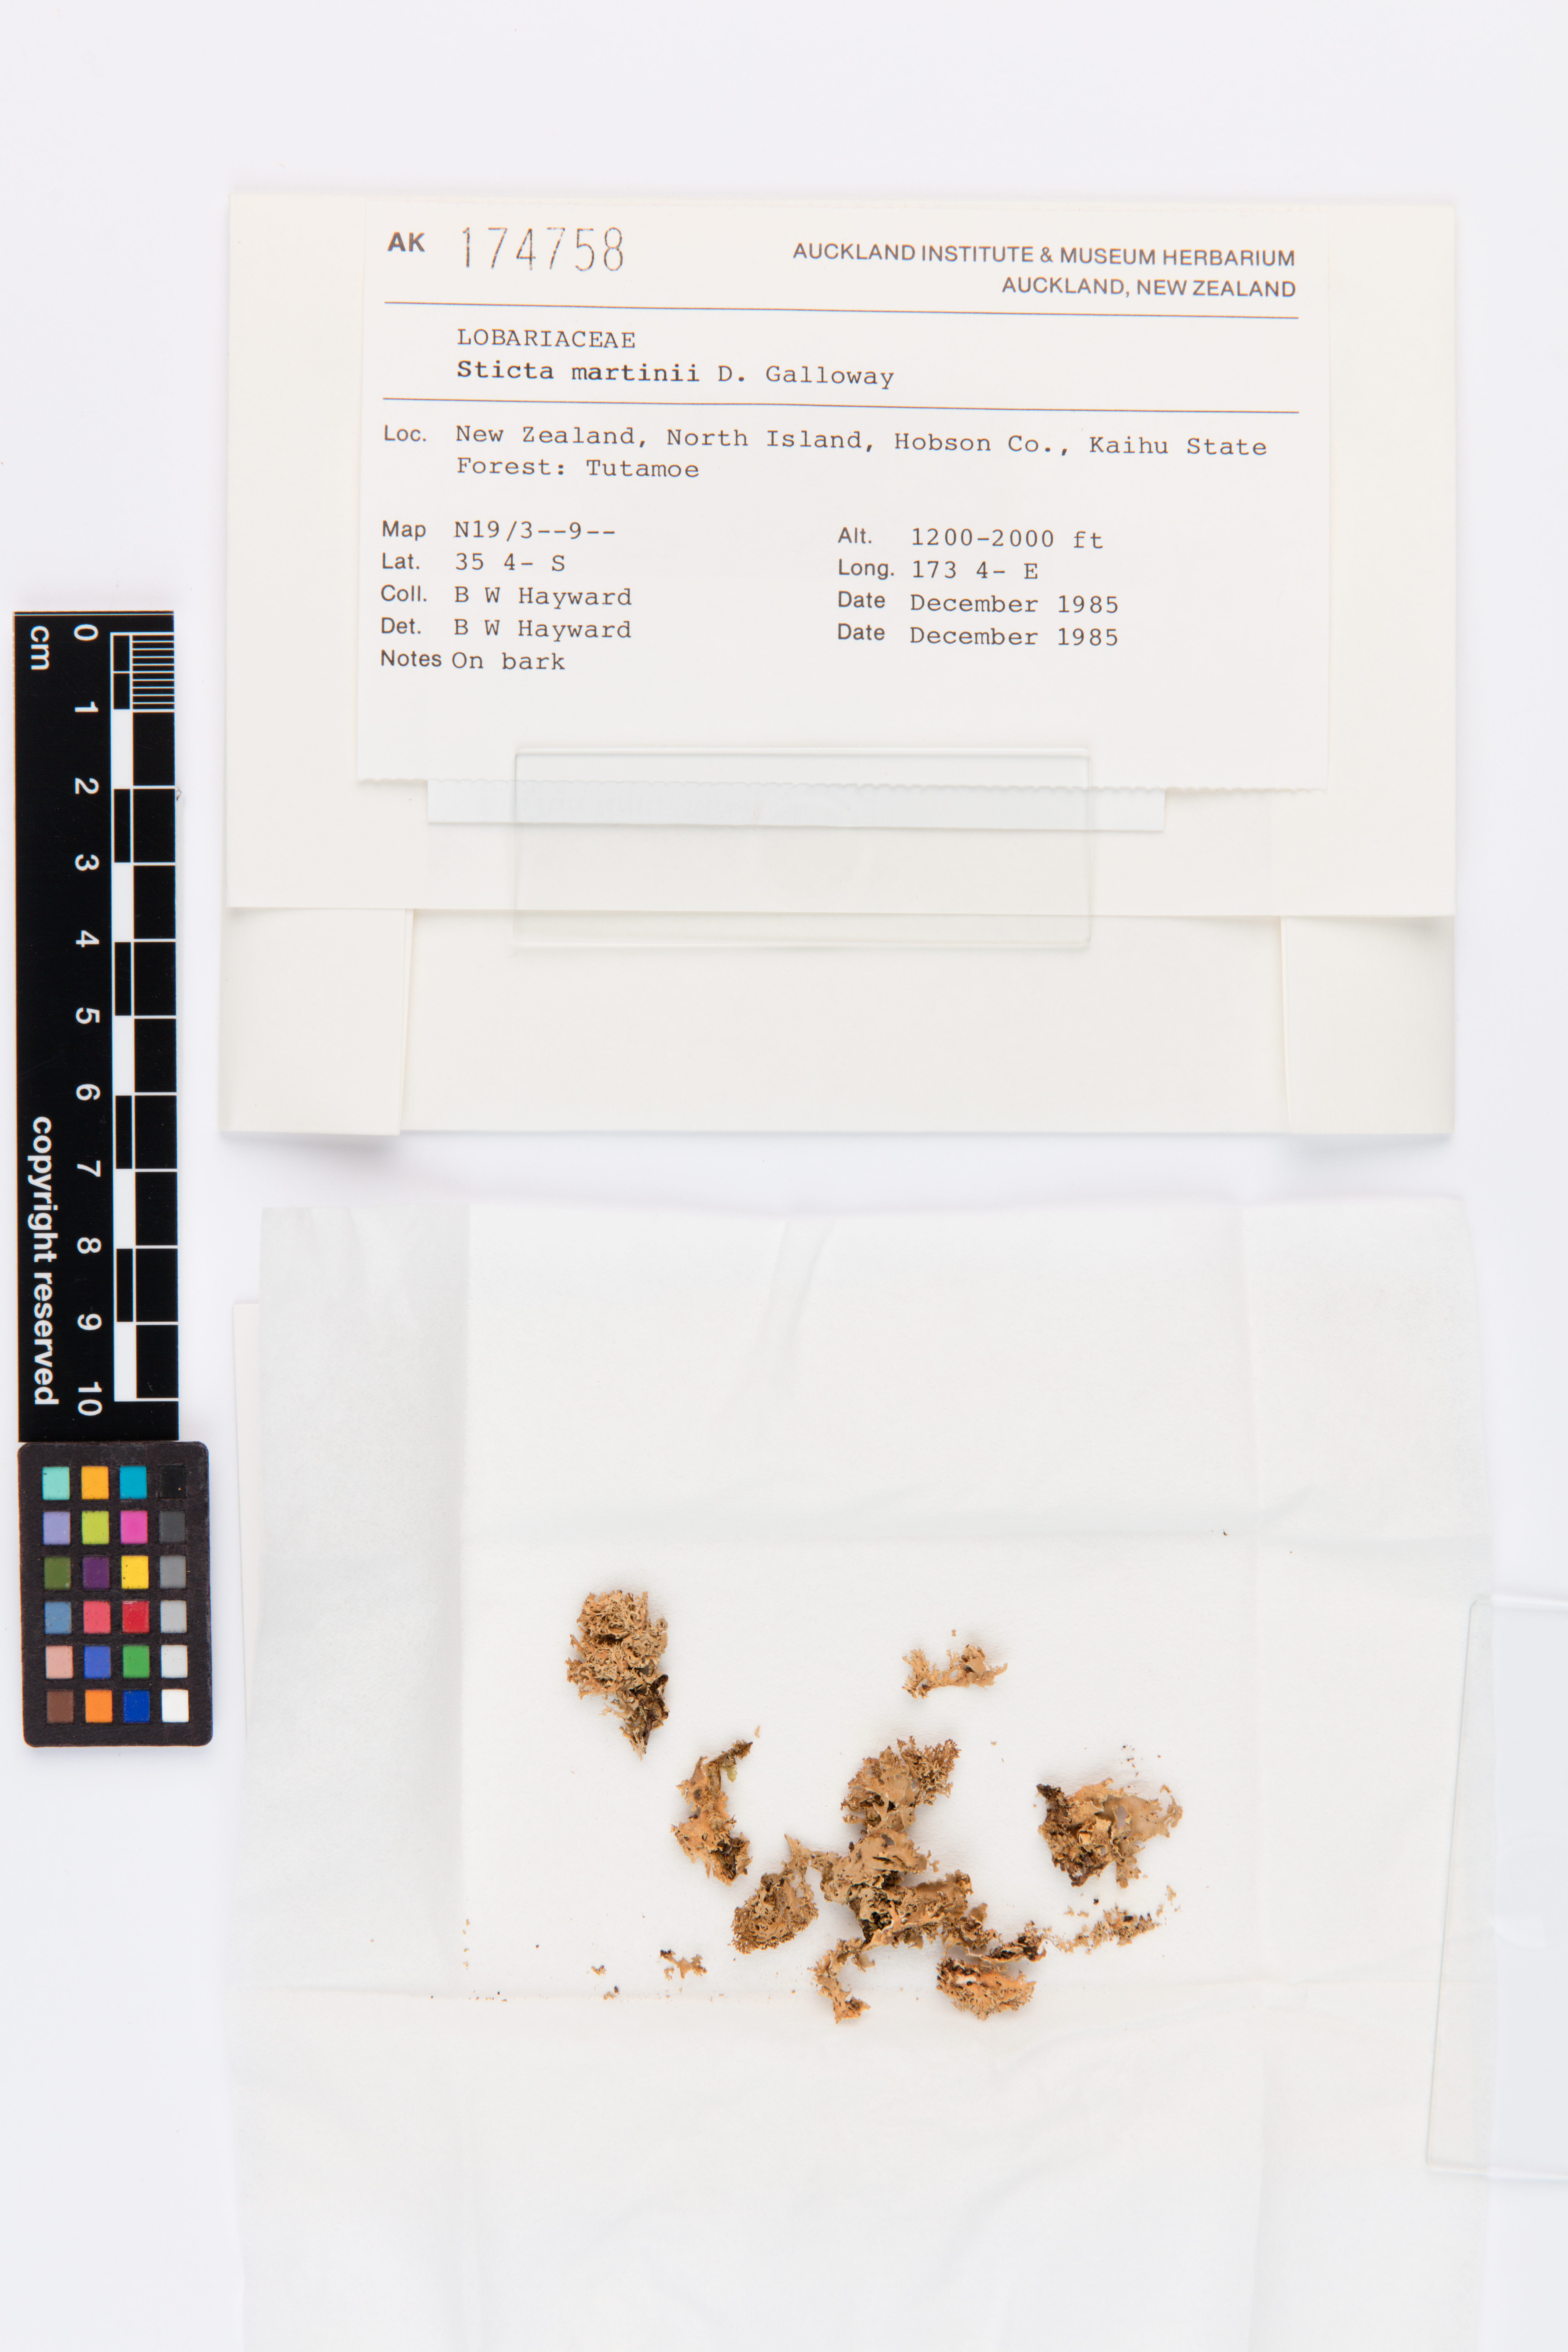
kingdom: Fungi
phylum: Ascomycota
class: Lecanoromycetes
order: Peltigerales
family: Lobariaceae
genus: Sticta
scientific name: Sticta martinii
